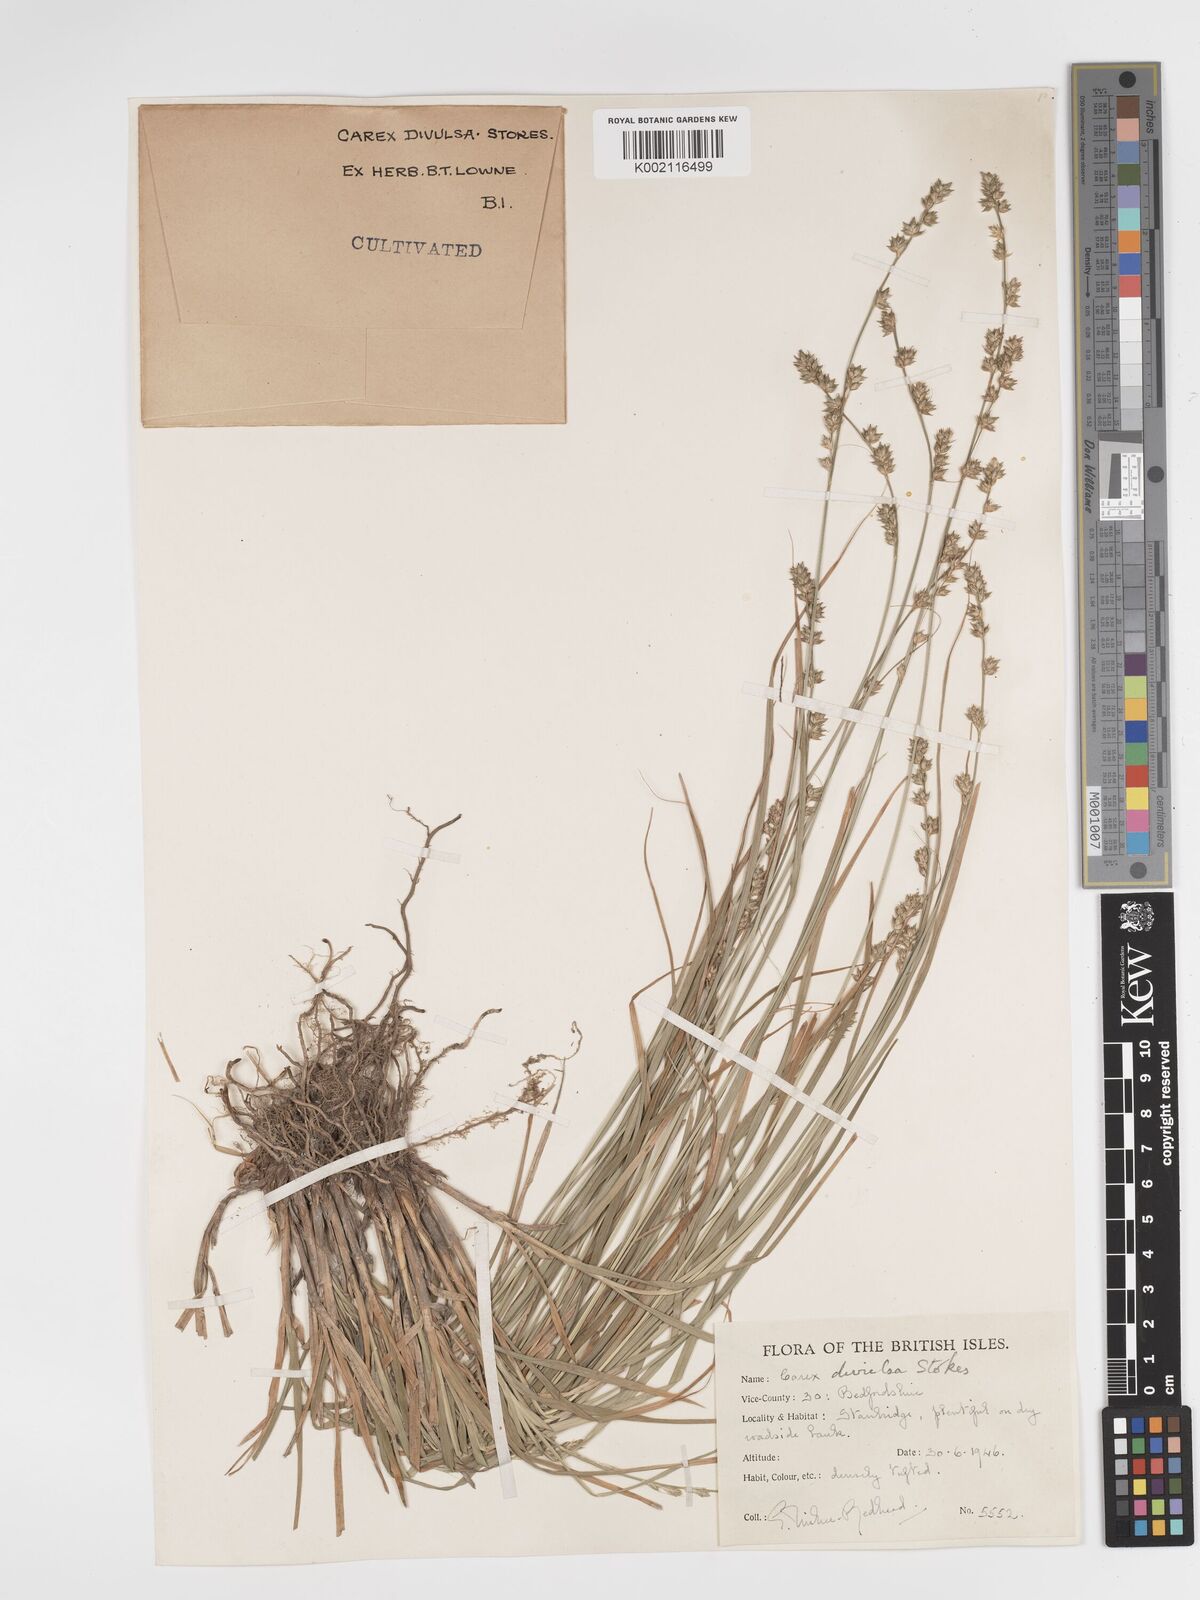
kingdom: Plantae
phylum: Tracheophyta
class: Liliopsida
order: Poales
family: Cyperaceae
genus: Carex
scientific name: Carex divulsa
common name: Grassland sedge
